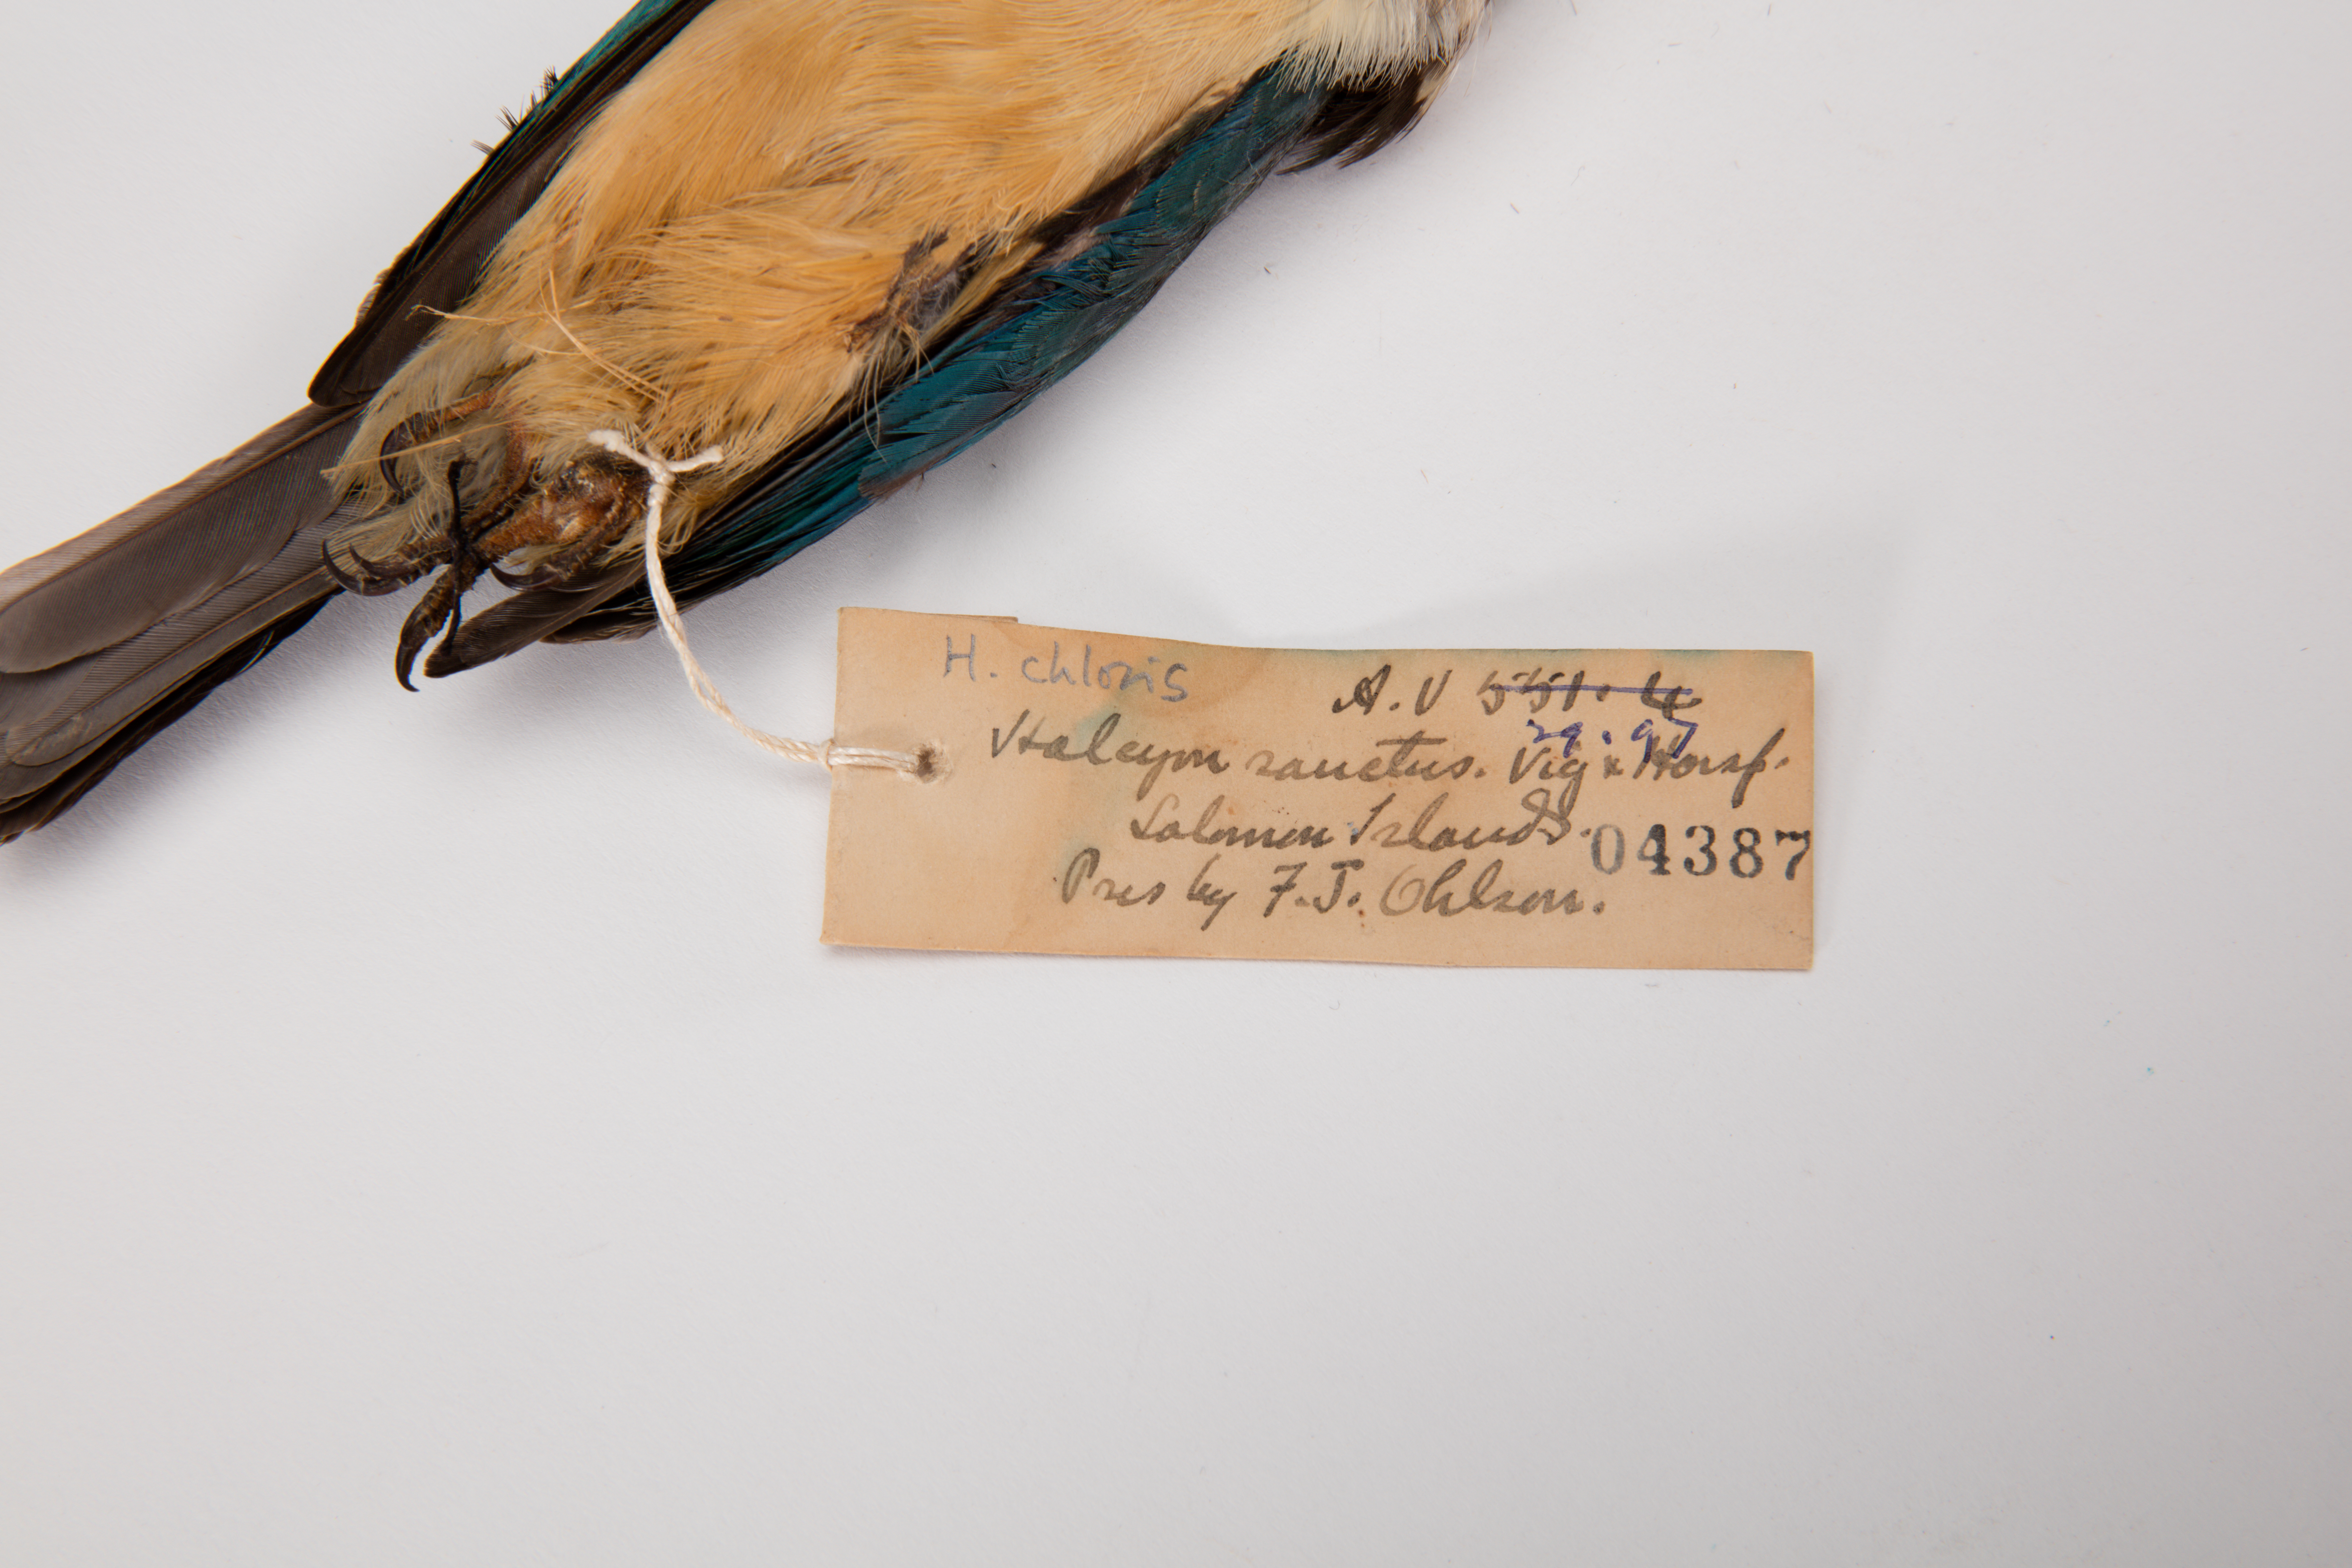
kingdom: Animalia
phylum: Chordata
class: Aves
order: Coraciiformes
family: Alcedinidae
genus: Todiramphus
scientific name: Todiramphus chloris
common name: Collared kingfisher
